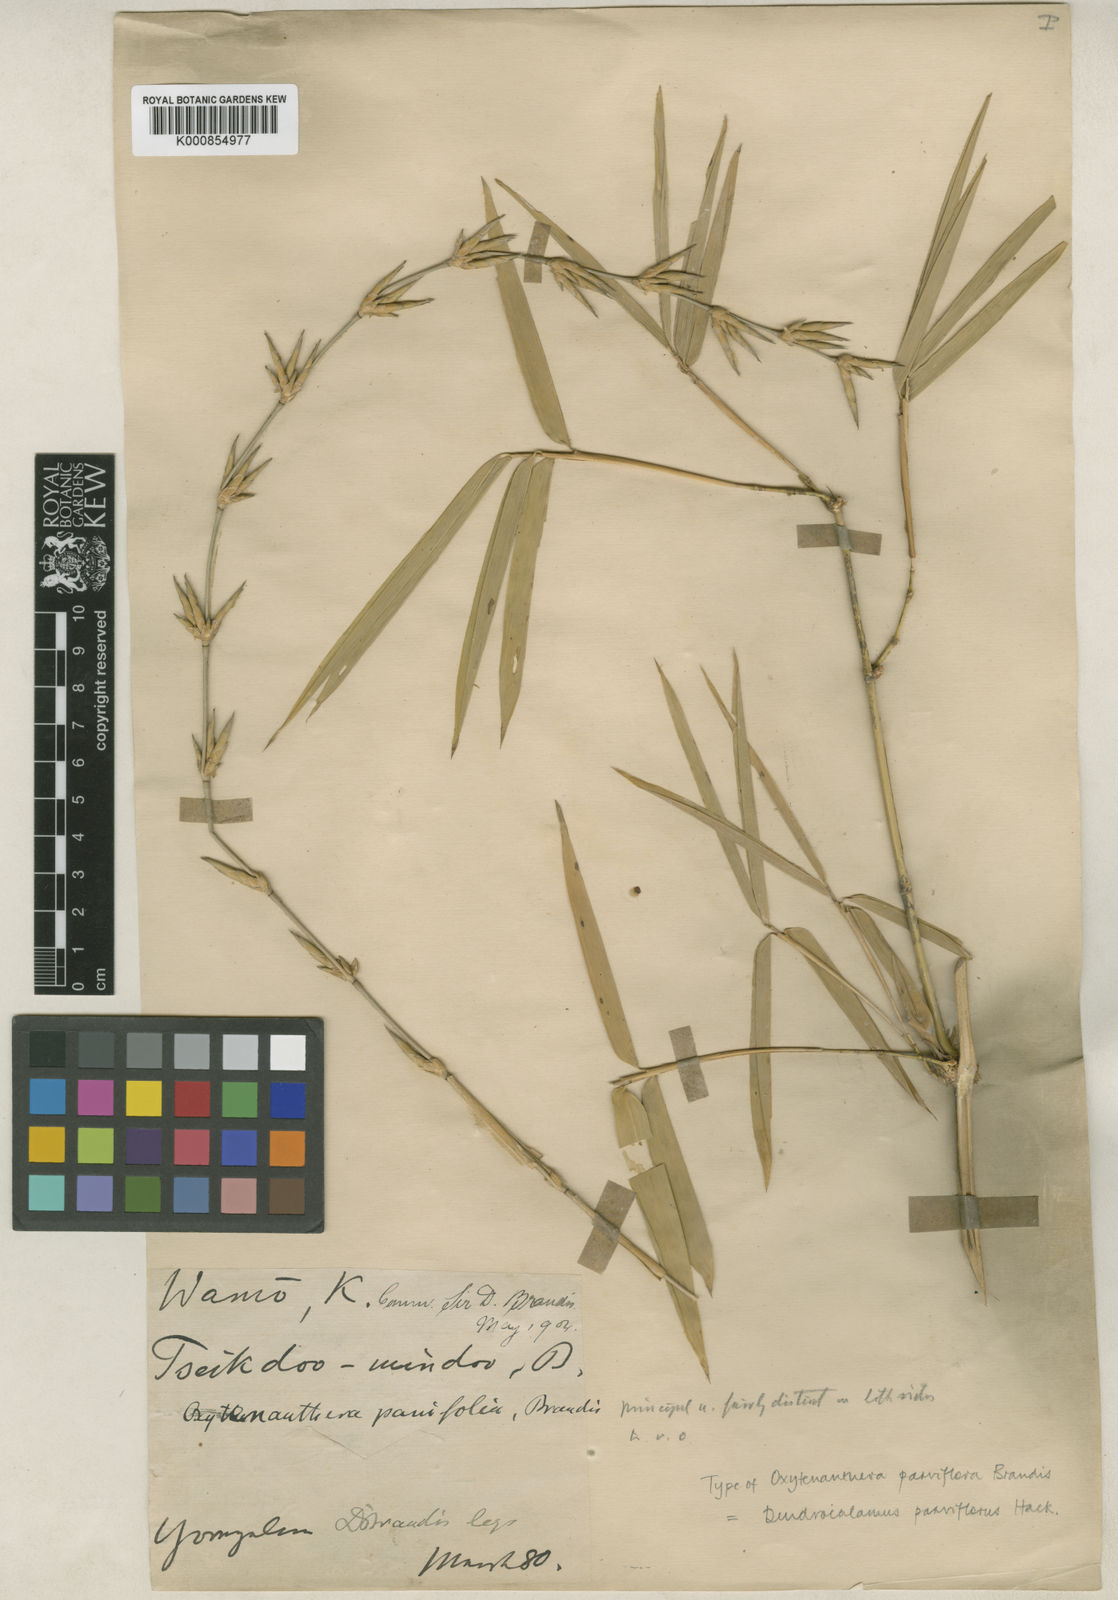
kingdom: Plantae
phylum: Tracheophyta
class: Liliopsida
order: Poales
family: Poaceae
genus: Dendrocalamus
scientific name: Dendrocalamus merrillianus
